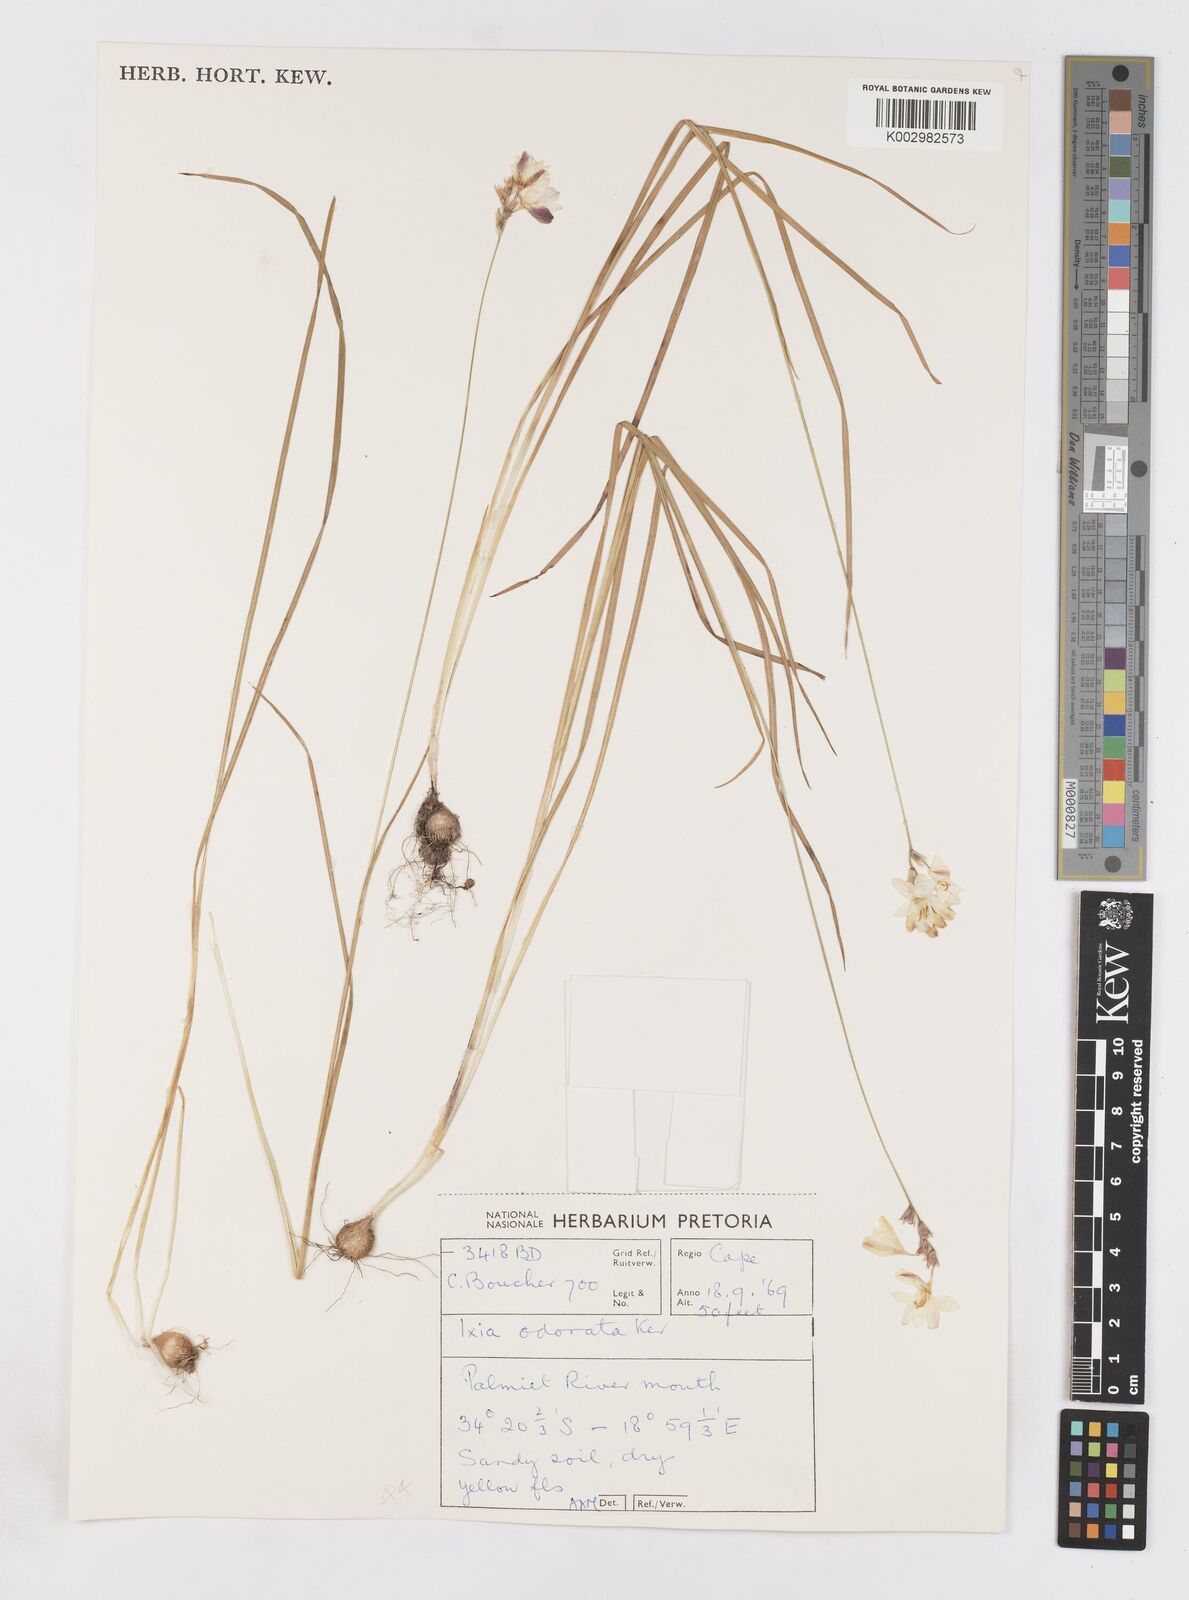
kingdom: Plantae
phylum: Tracheophyta
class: Liliopsida
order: Asparagales
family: Iridaceae
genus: Ixia
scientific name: Ixia odorata
